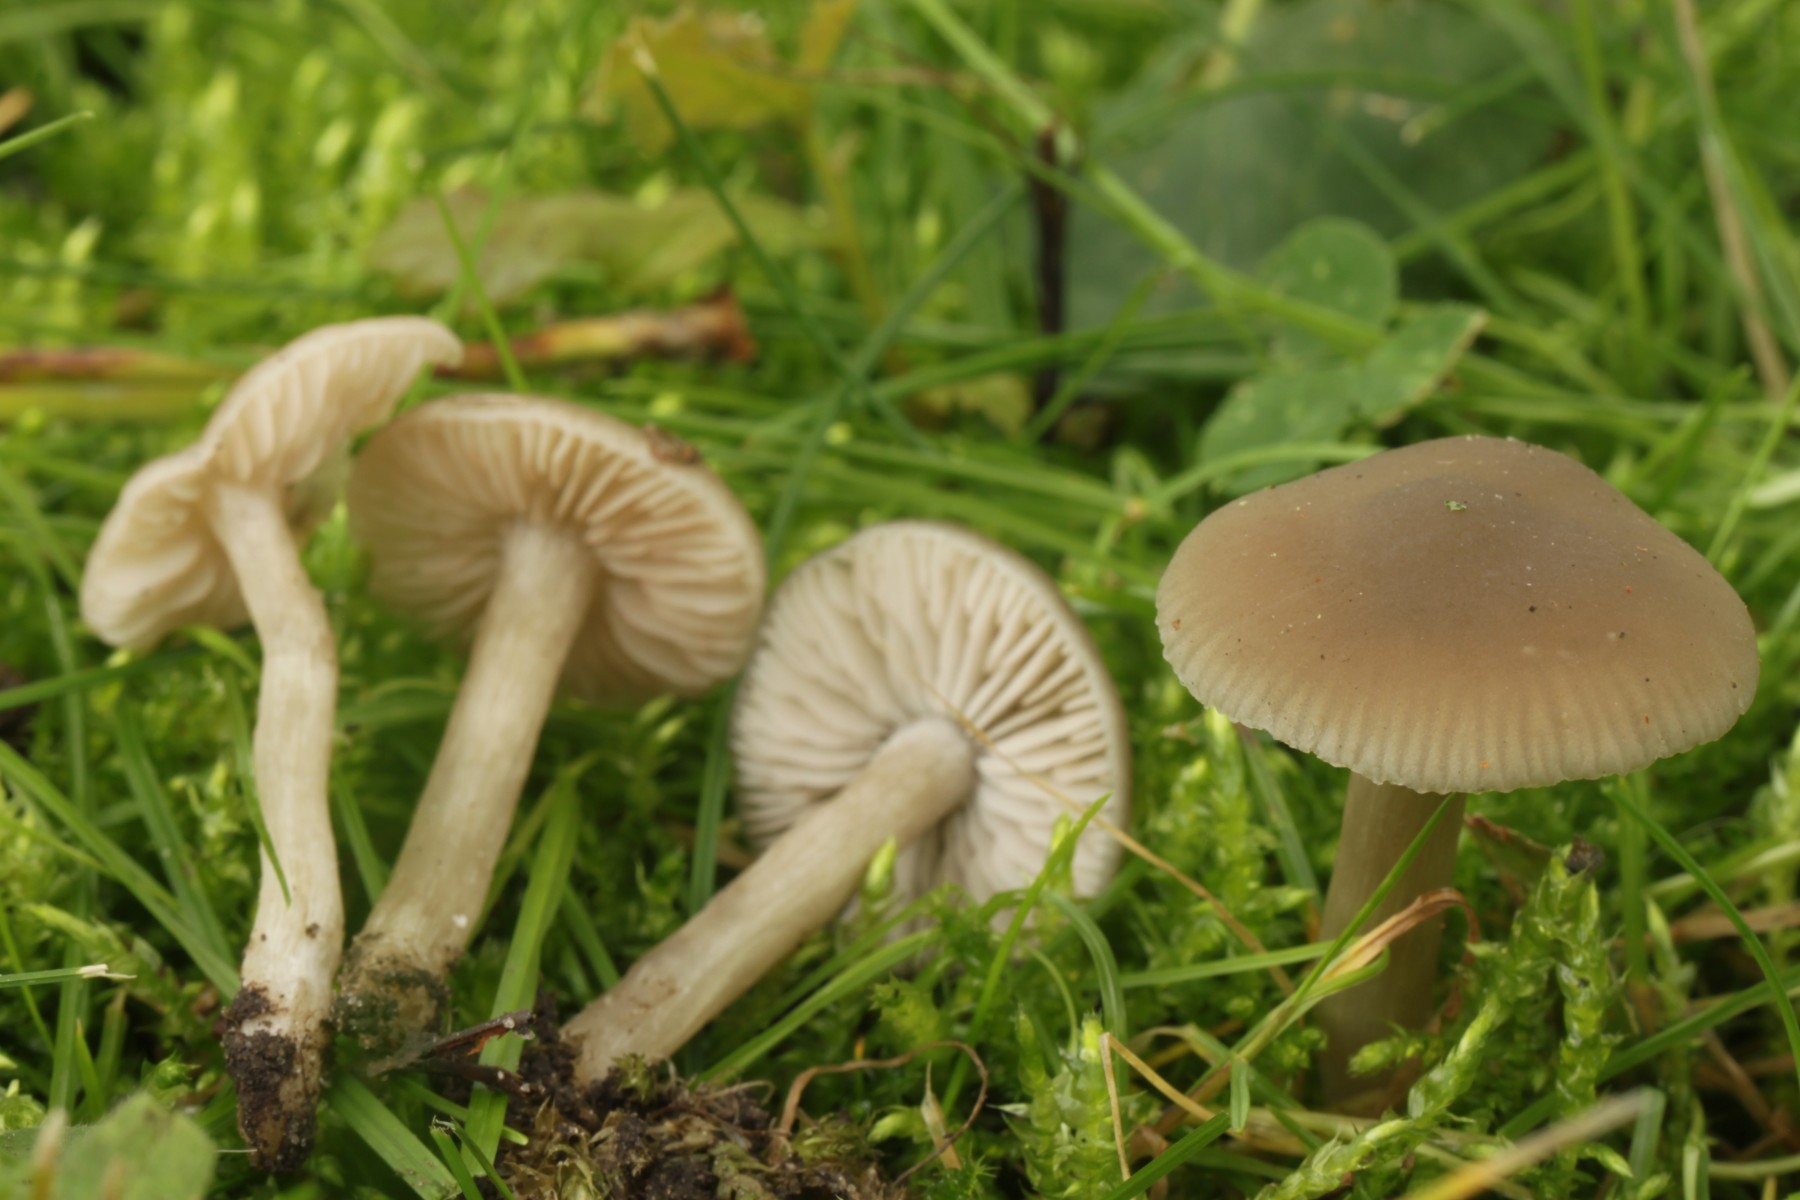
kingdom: Fungi
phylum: Basidiomycota
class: Agaricomycetes
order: Agaricales
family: Entolomataceae
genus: Entoloma
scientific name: Entoloma sordidulum
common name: smudsig rødblad
